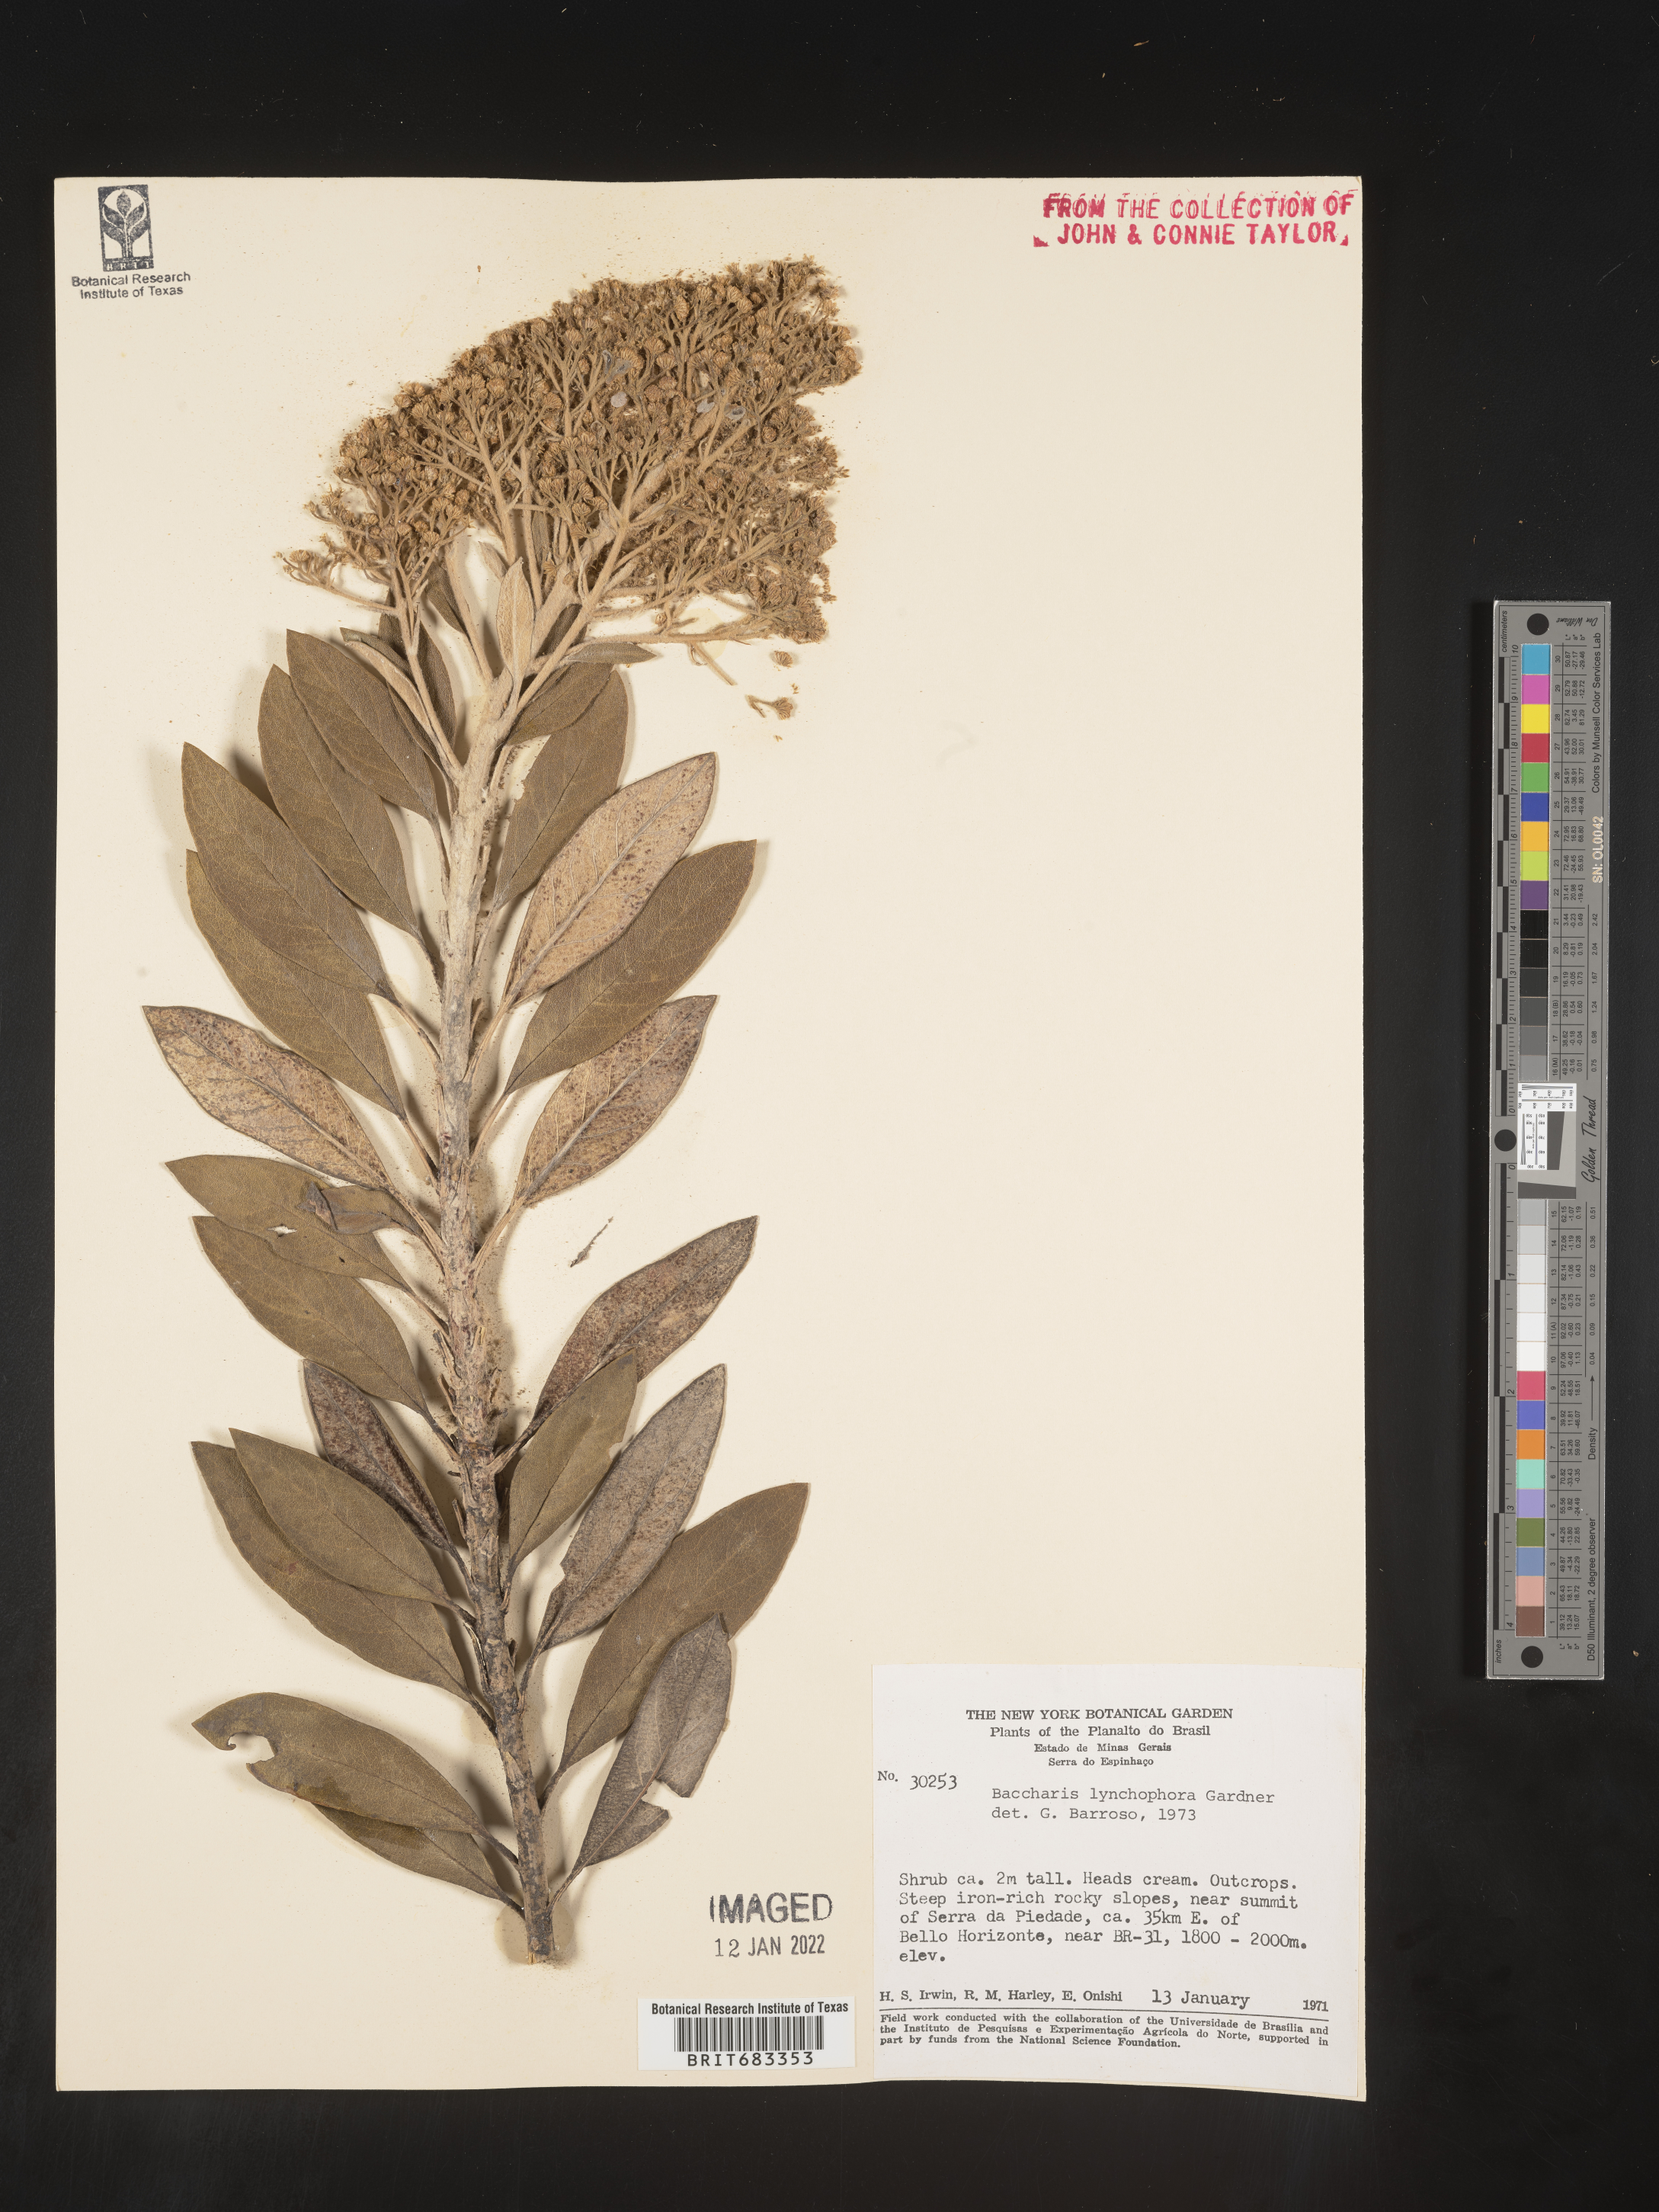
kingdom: Plantae
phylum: Tracheophyta
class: Magnoliopsida
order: Asterales
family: Asteraceae
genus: Baccharis
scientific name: Baccharis
